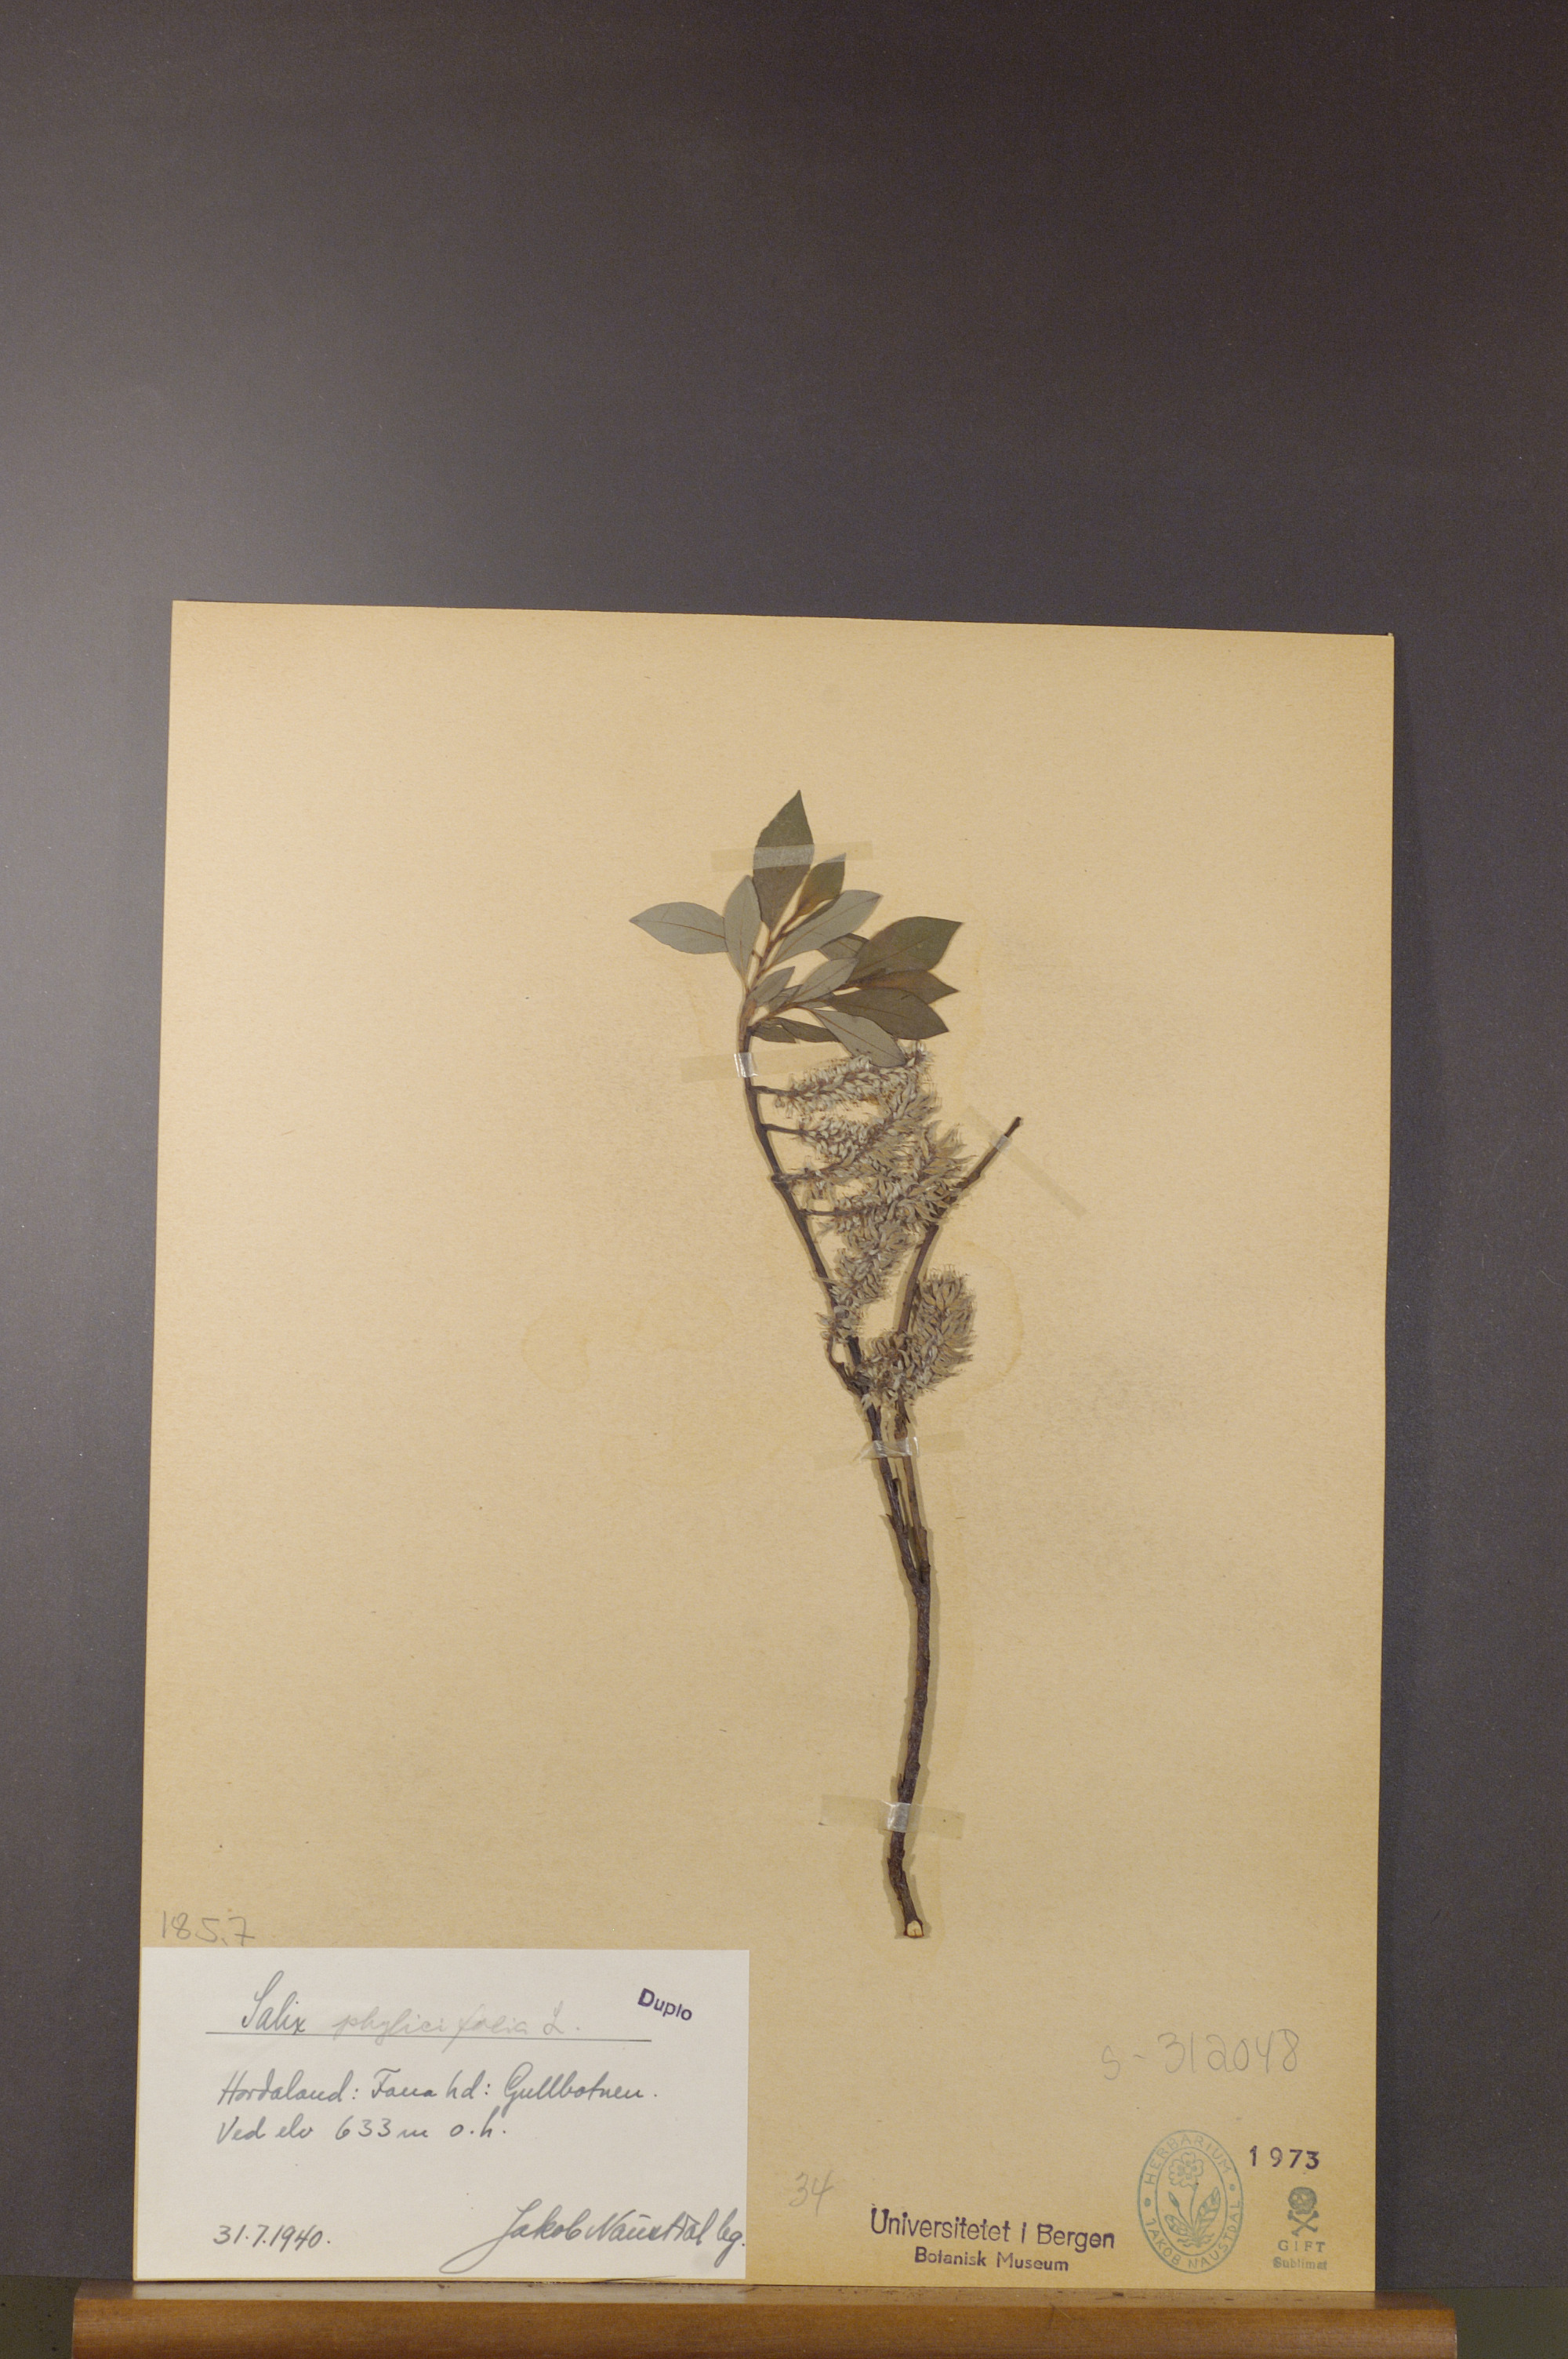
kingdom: Plantae
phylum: Tracheophyta
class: Magnoliopsida
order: Malpighiales
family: Salicaceae
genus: Salix
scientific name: Salix phylicifolia
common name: Tea-leaved willow
